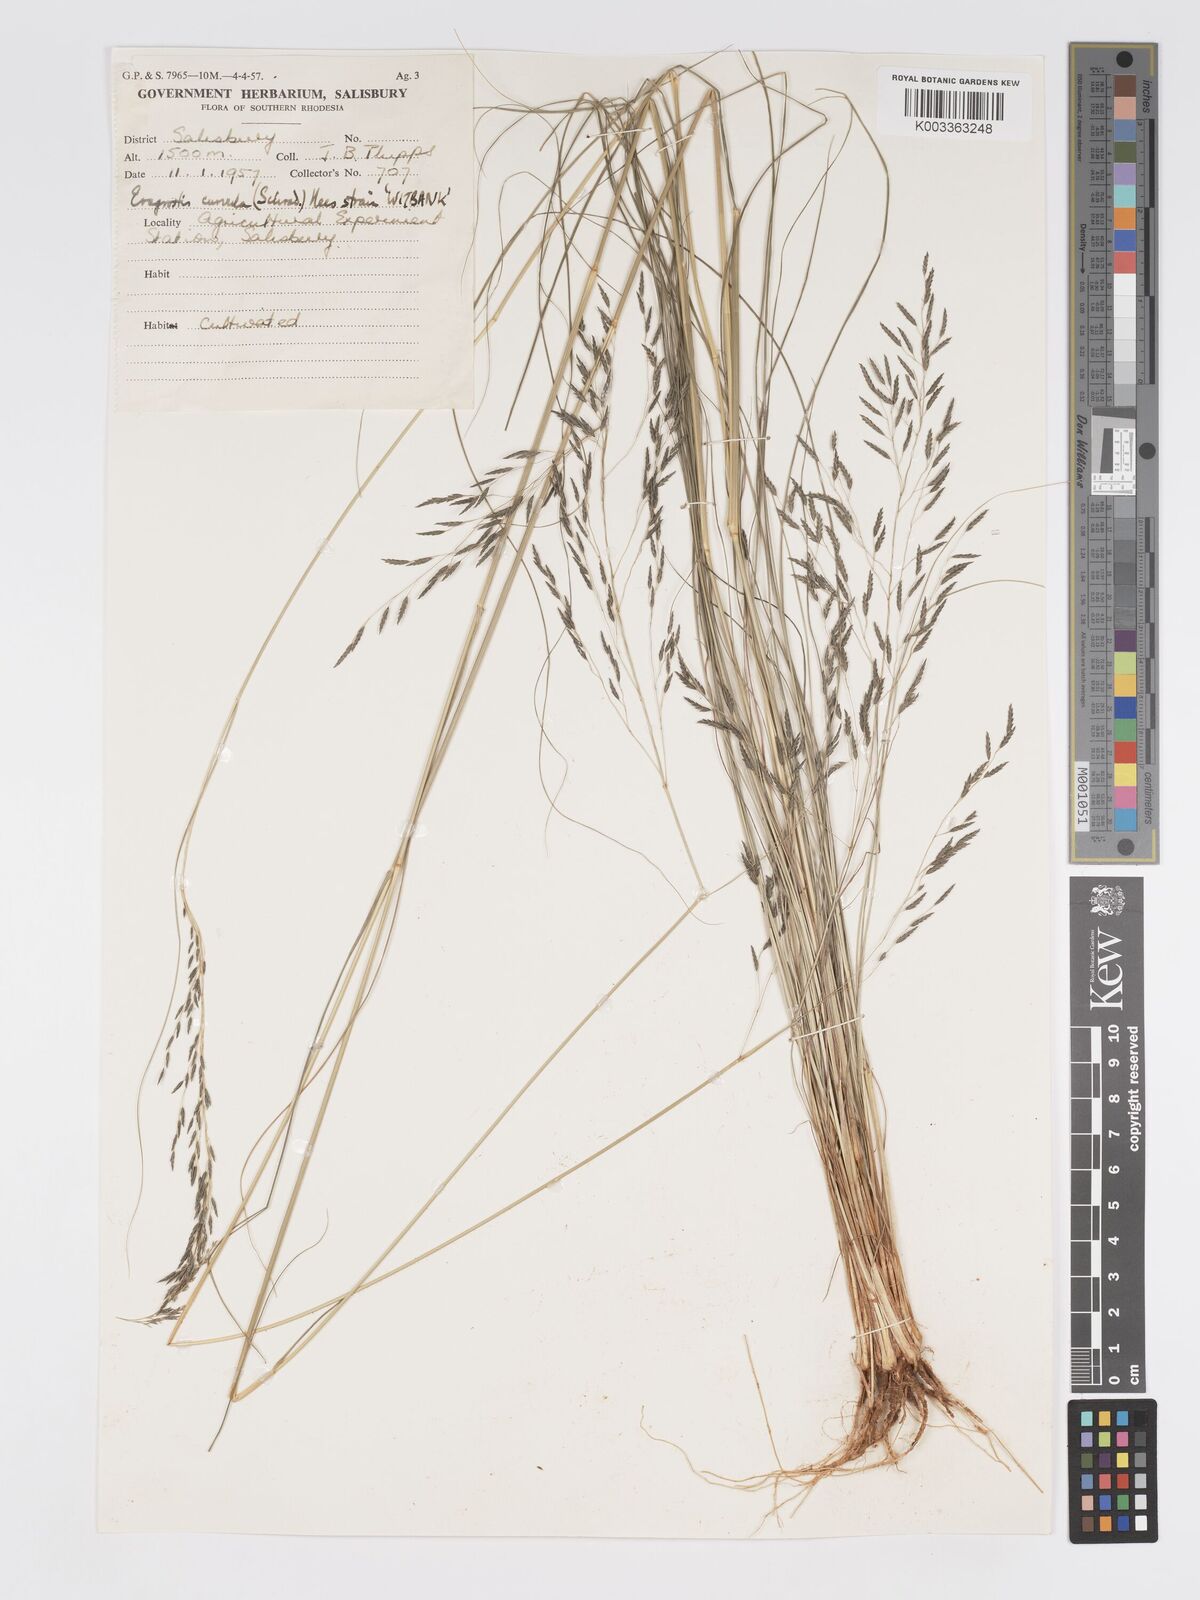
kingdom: Plantae
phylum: Tracheophyta
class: Liliopsida
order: Poales
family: Poaceae
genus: Eragrostis
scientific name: Eragrostis curvula
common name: African love-grass
